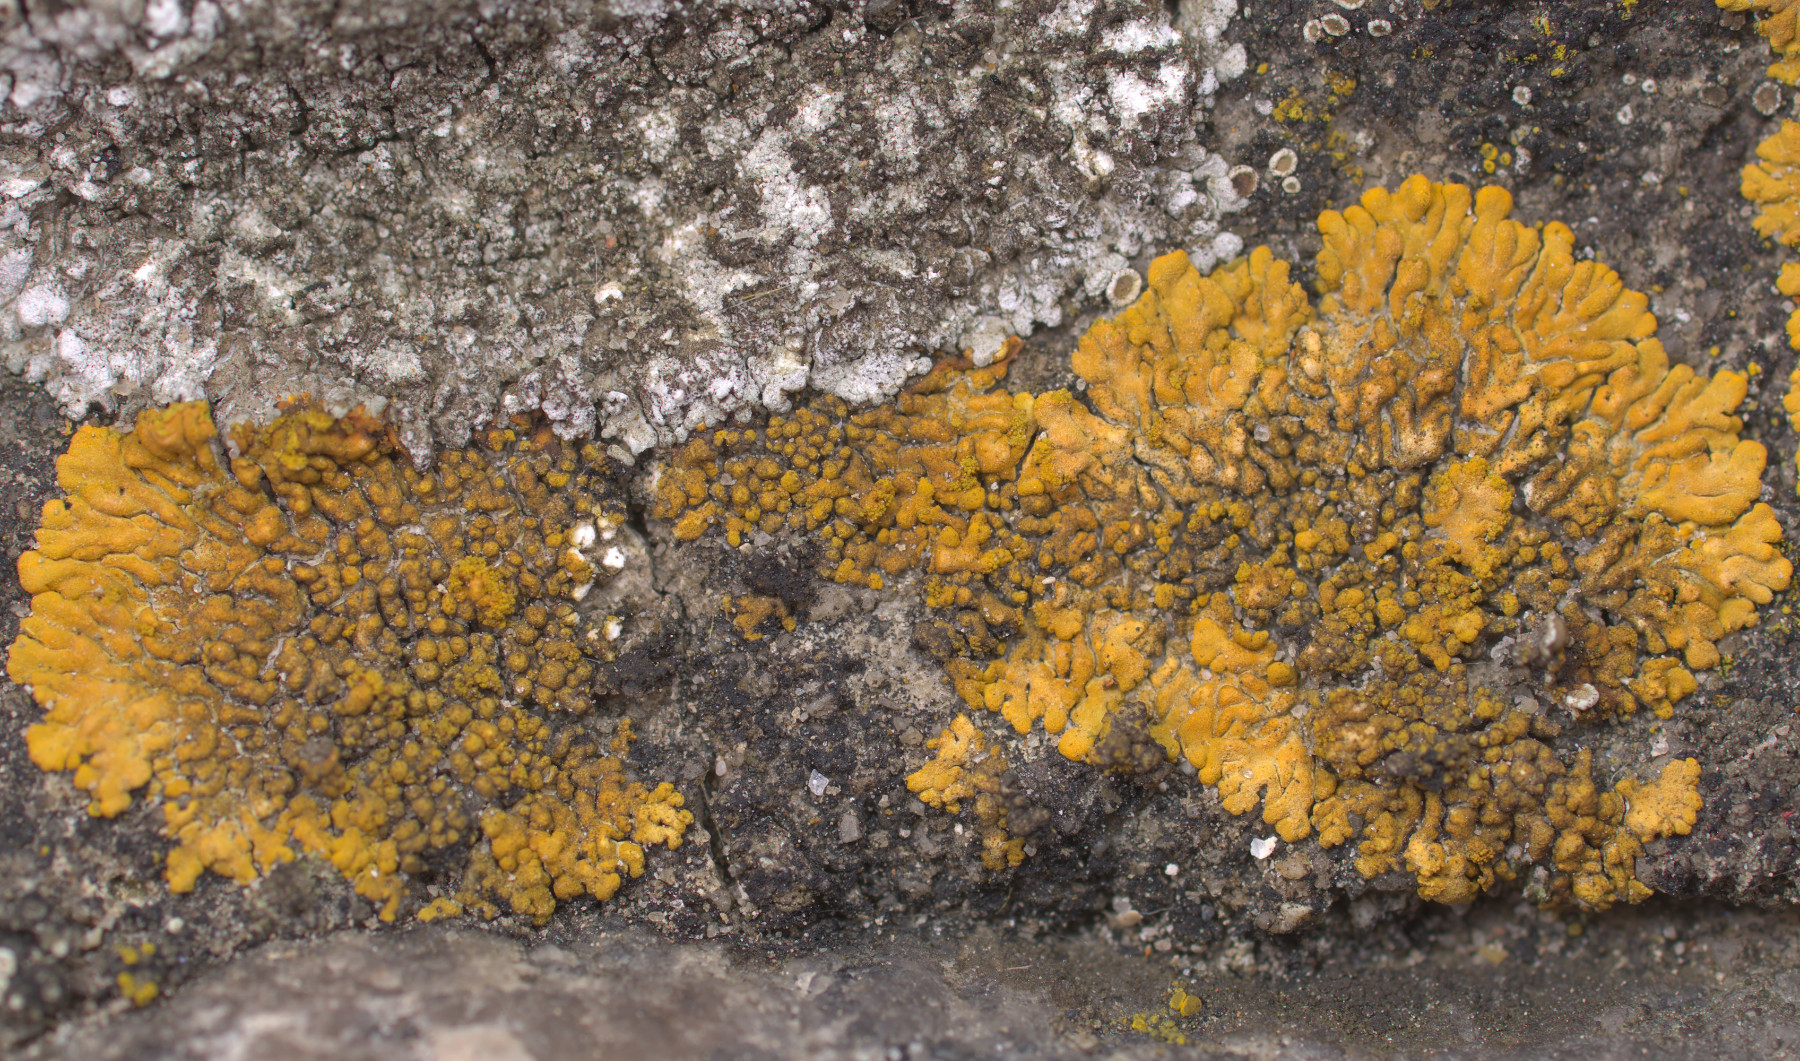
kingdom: Fungi
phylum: Ascomycota
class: Lecanoromycetes
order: Teloschistales
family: Teloschistaceae
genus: Calogaya
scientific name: Calogaya decipiens
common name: knudret orangelav
